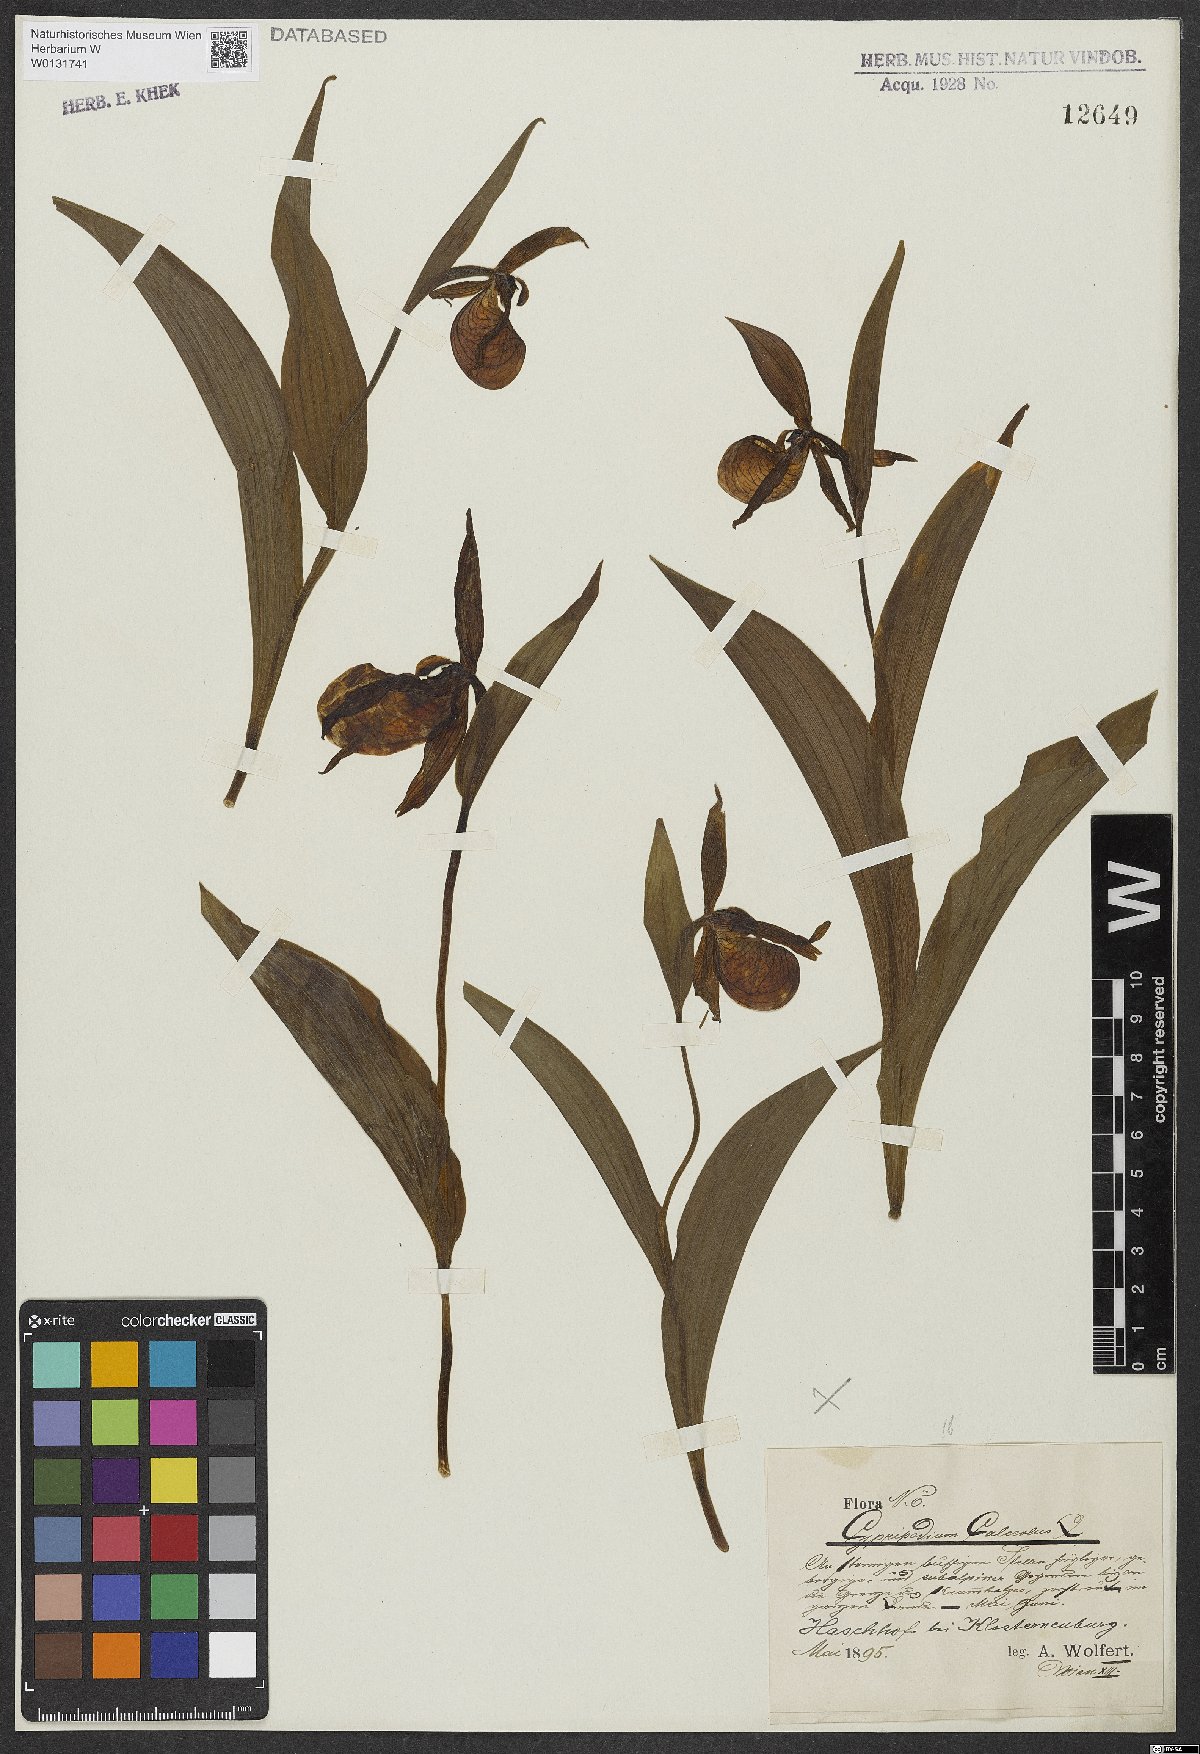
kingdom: Plantae
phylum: Tracheophyta
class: Liliopsida
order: Asparagales
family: Orchidaceae
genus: Cypripedium
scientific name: Cypripedium calceolus
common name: Lady's-slipper
